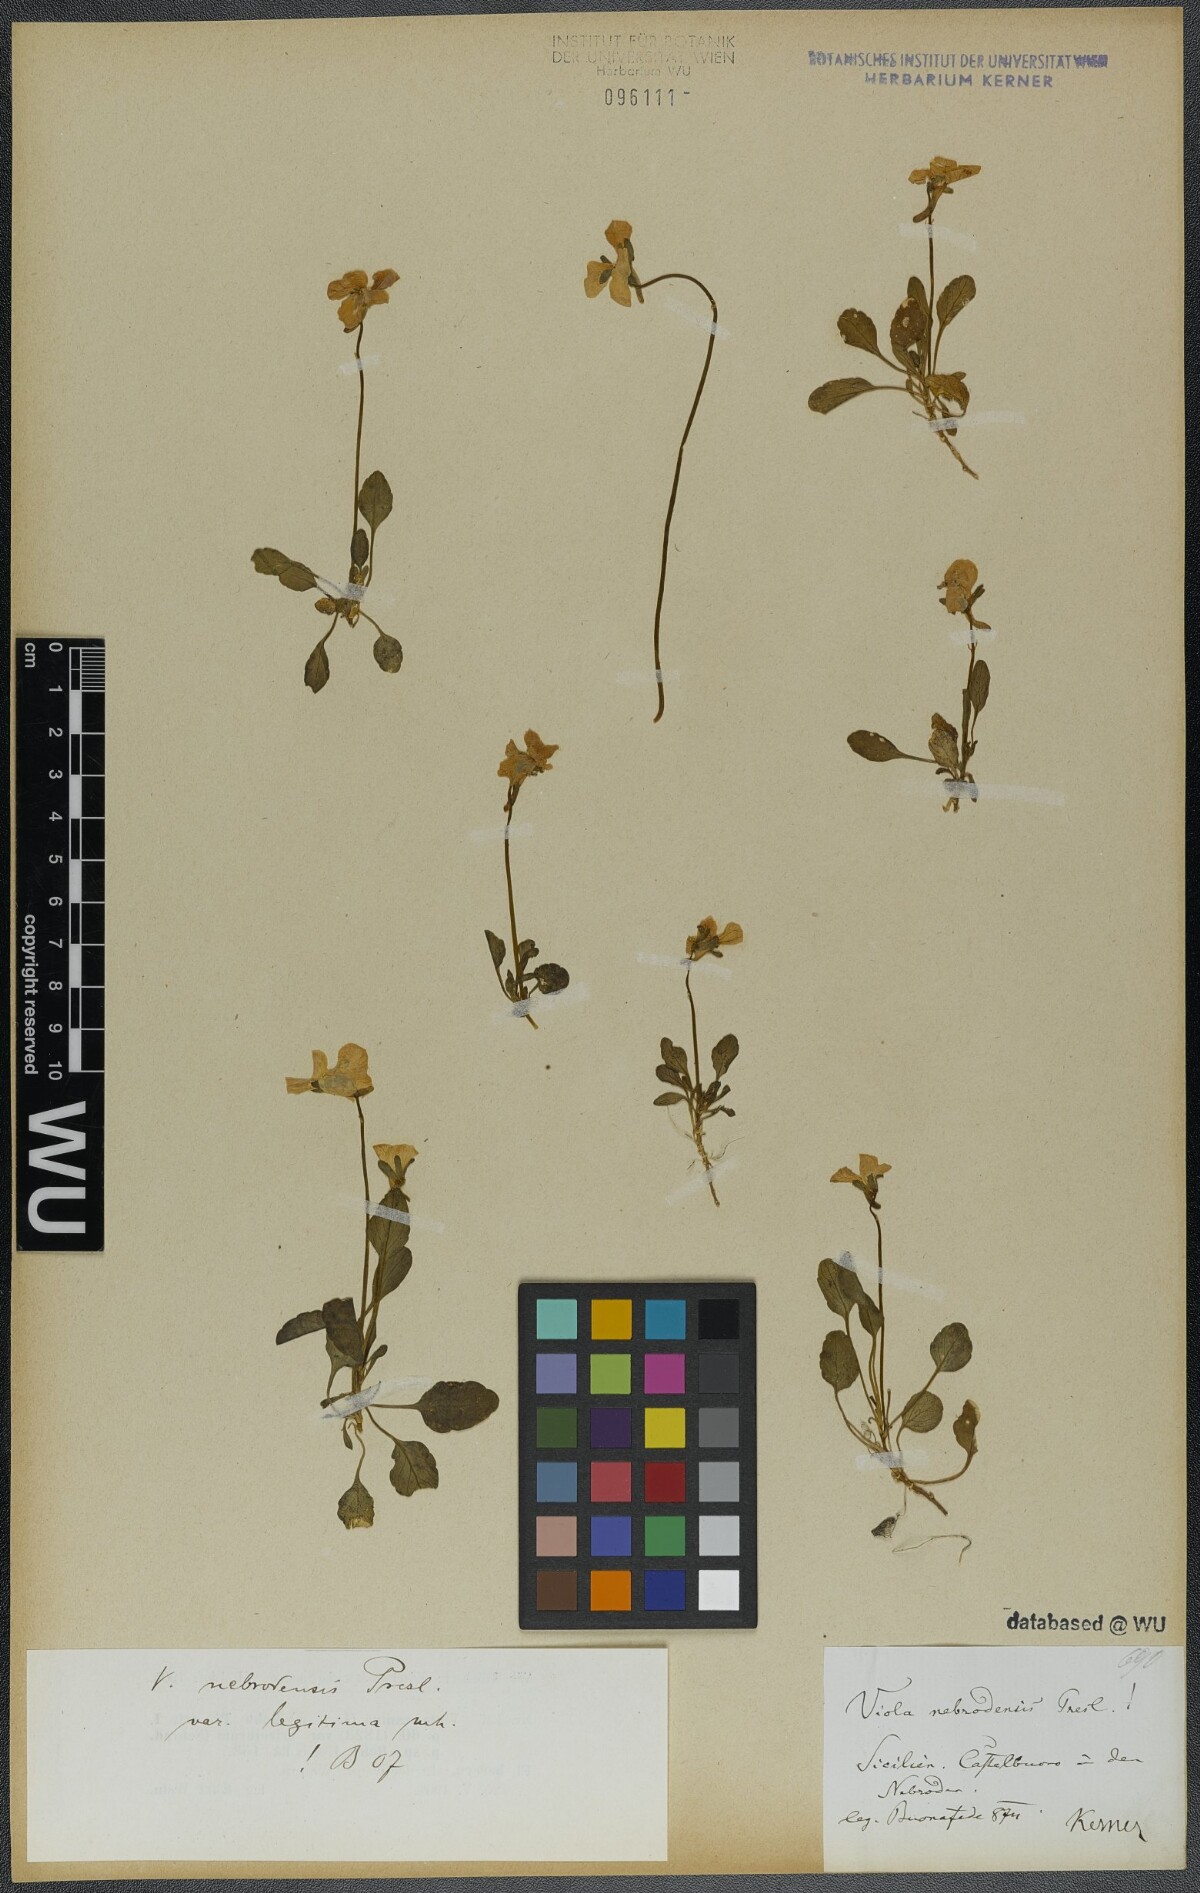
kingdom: Plantae
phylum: Tracheophyta
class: Magnoliopsida
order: Malpighiales
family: Violaceae
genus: Viola
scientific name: Viola nebrodensis
